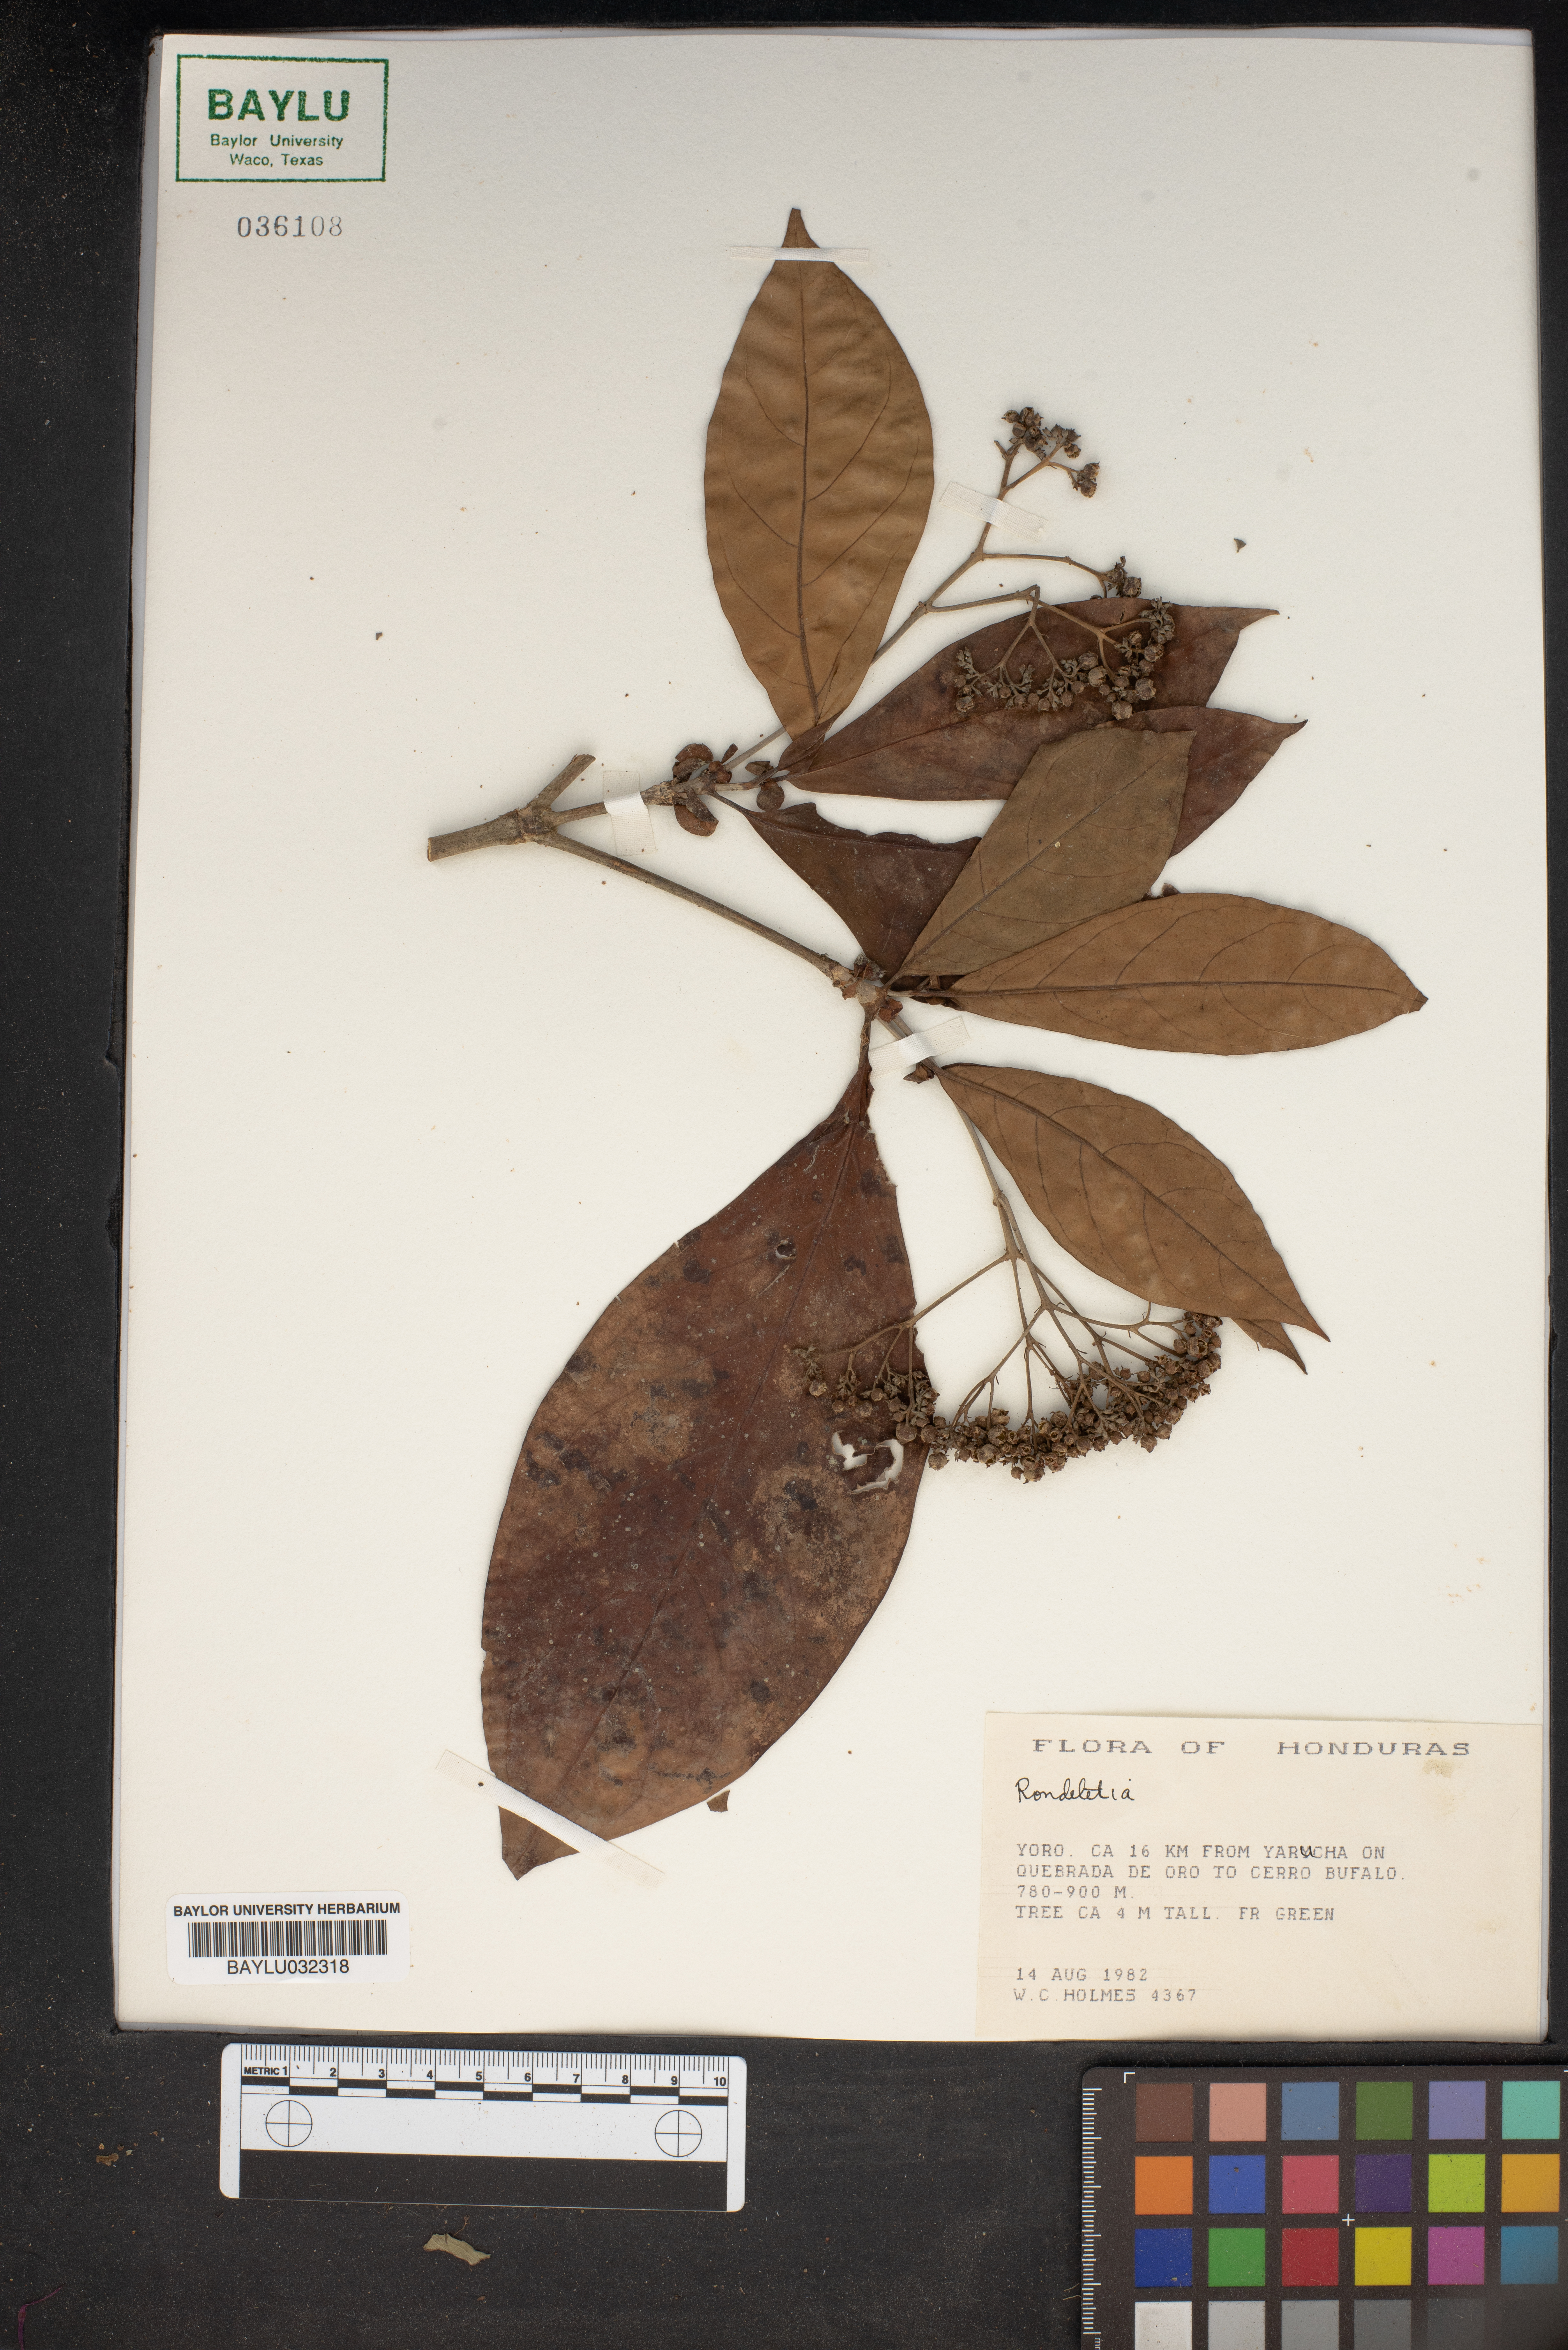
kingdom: Plantae
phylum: Tracheophyta
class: Magnoliopsida
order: Gentianales
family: Rubiaceae
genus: Rondeletia
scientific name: Rondeletia
